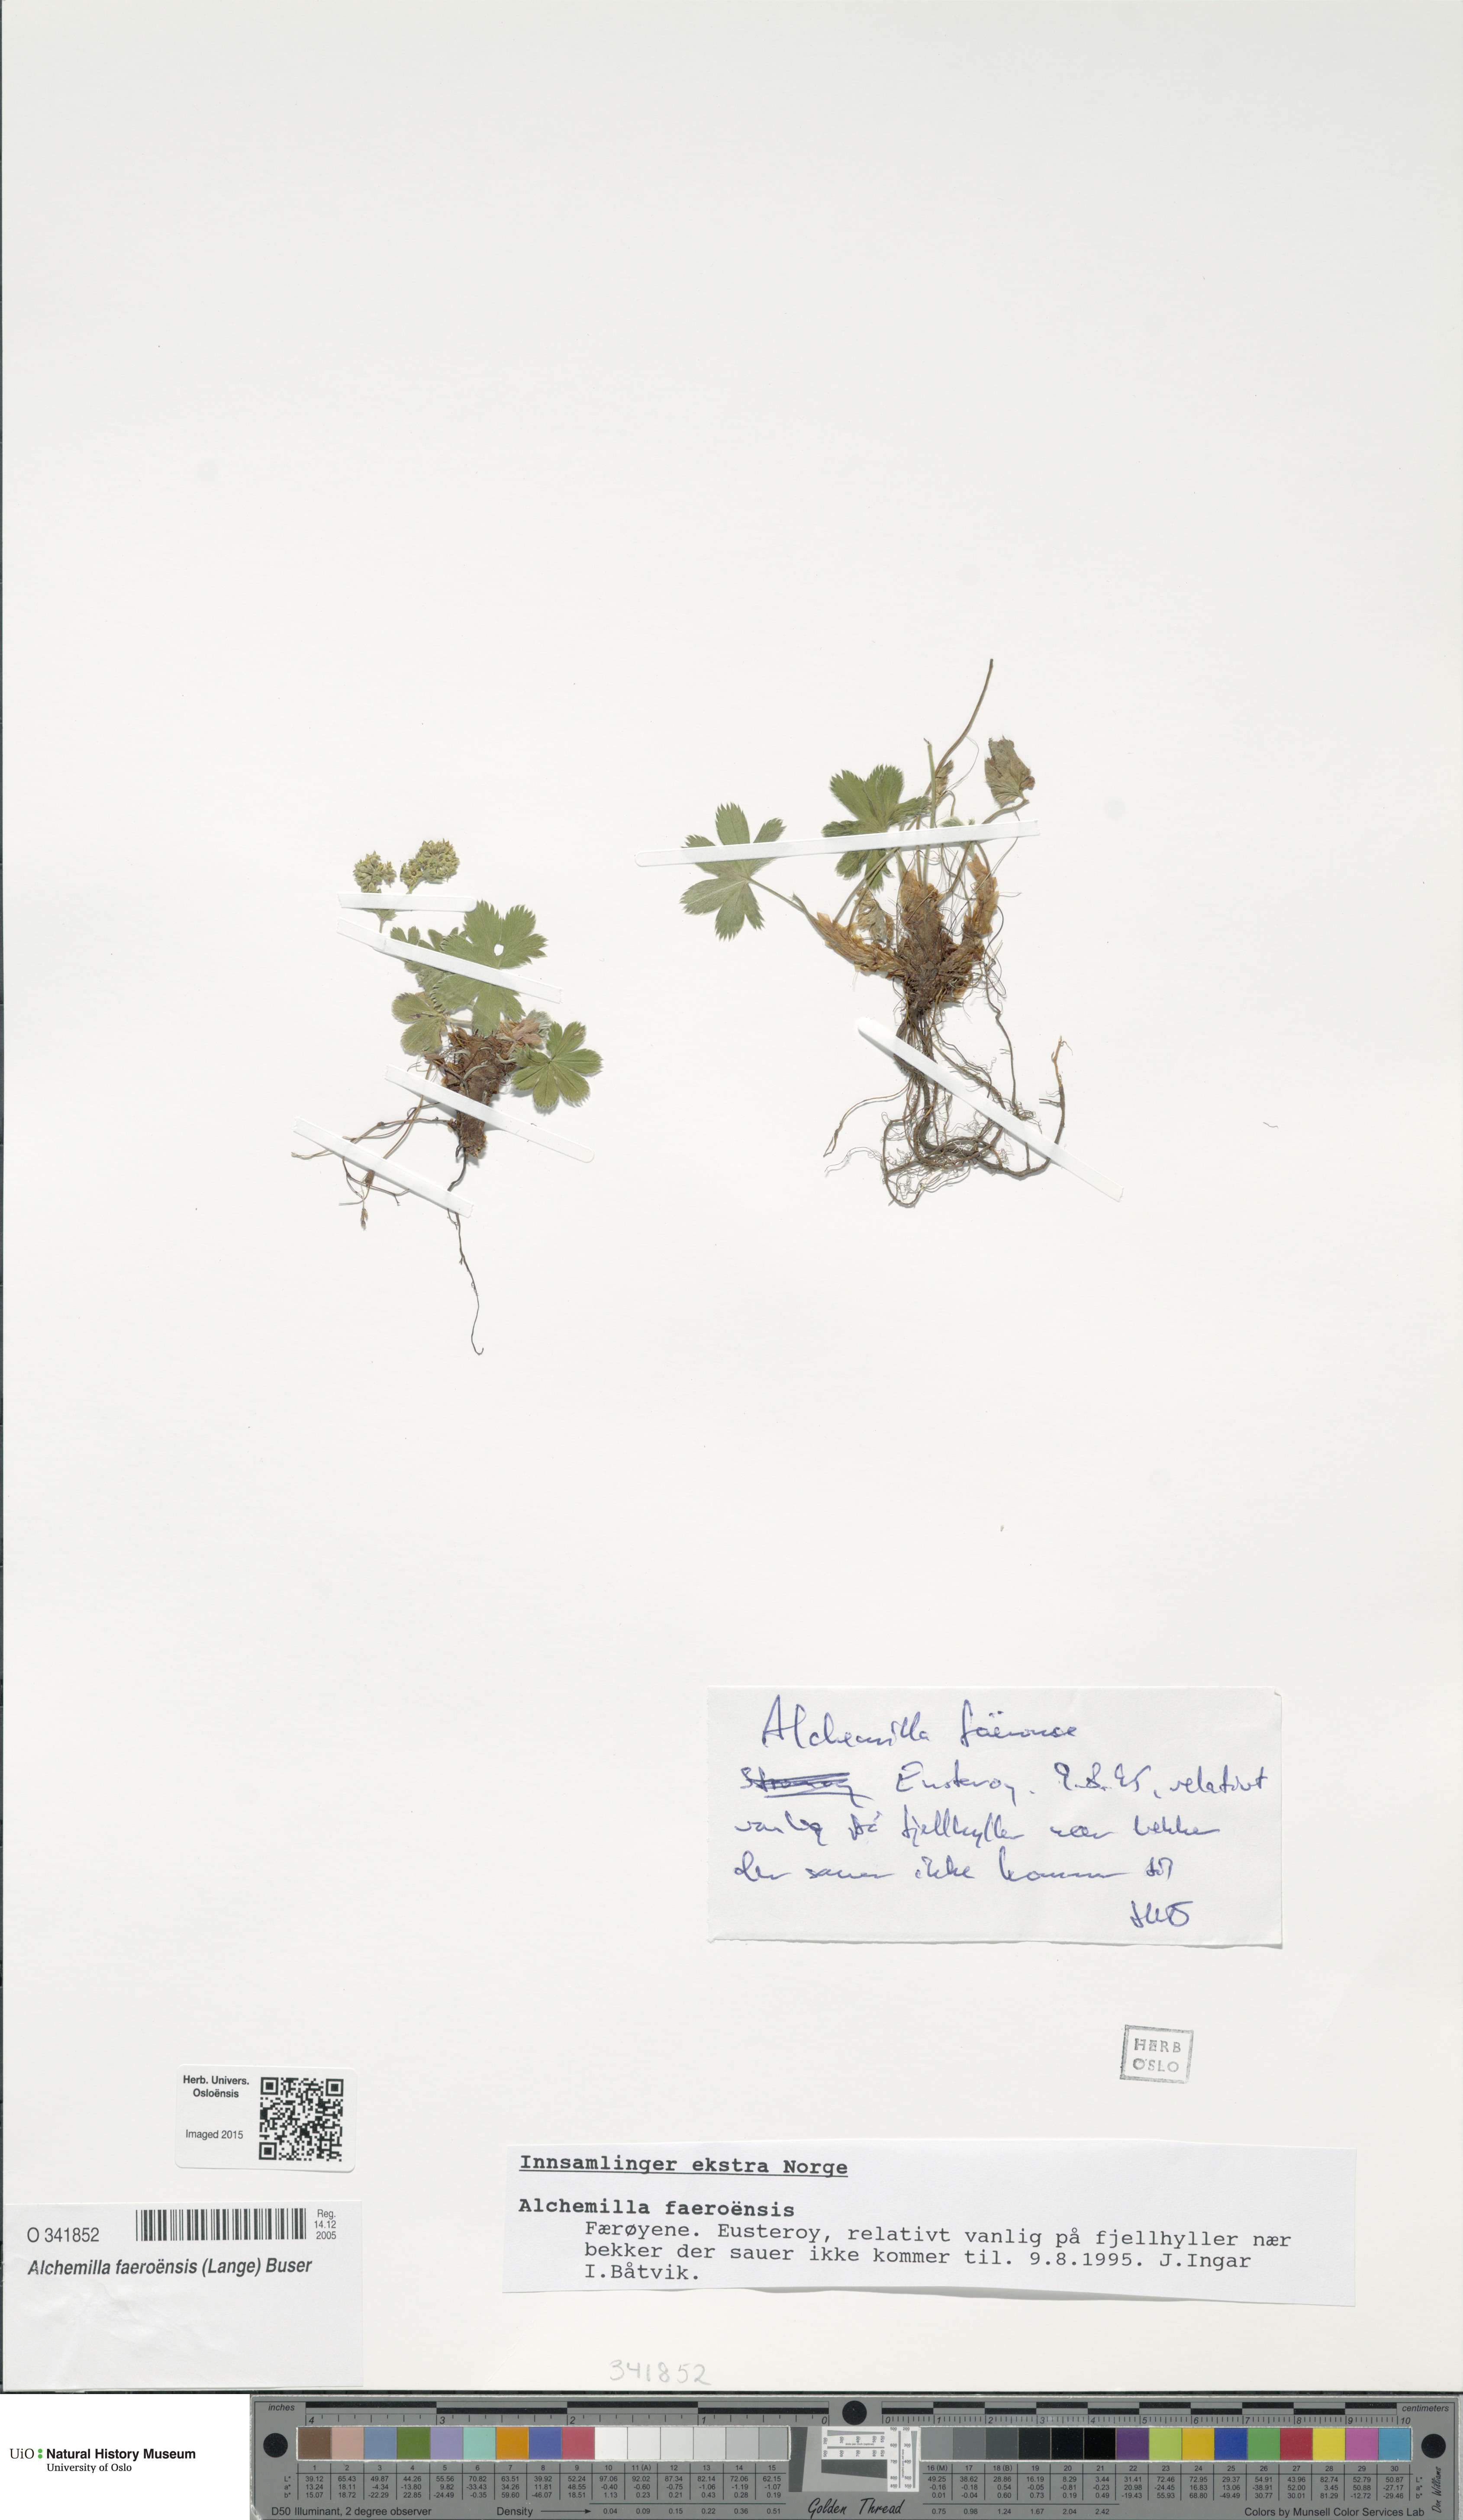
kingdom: Plantae
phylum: Tracheophyta
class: Magnoliopsida
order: Rosales
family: Rosaceae
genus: Alchemilla
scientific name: Alchemilla faeroensis
